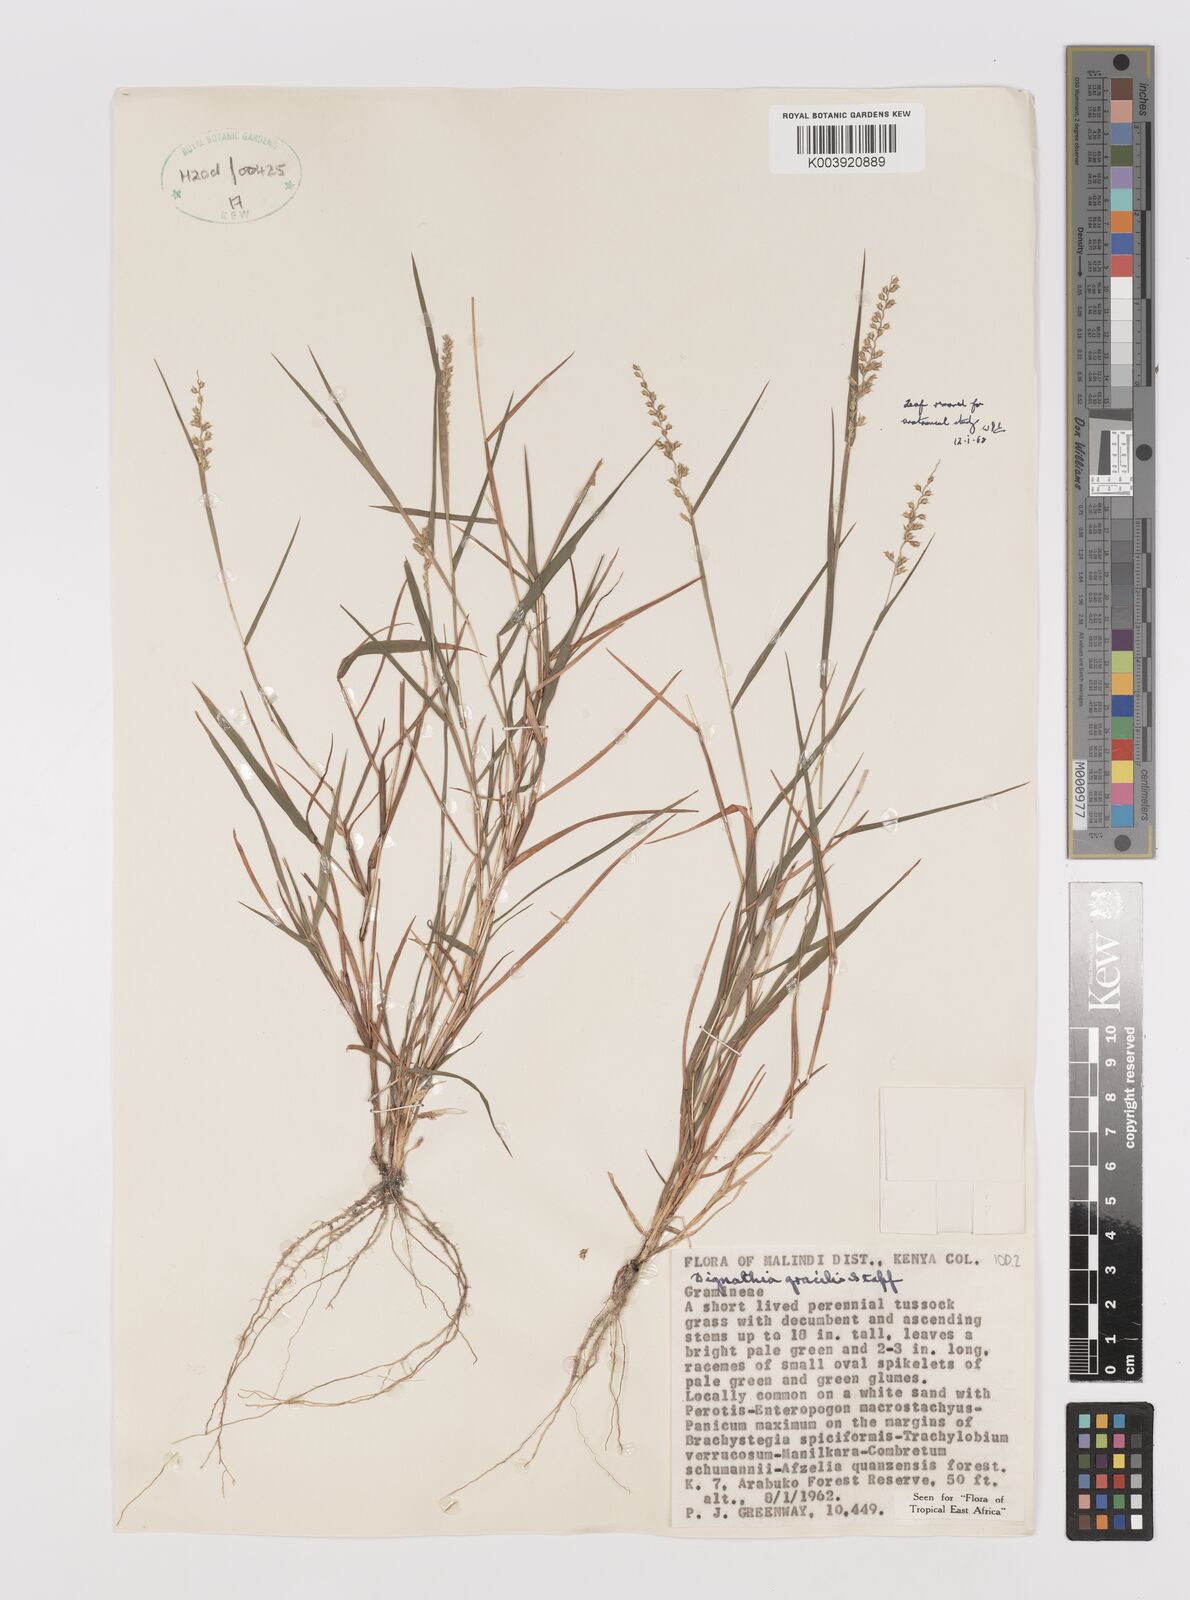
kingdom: Plantae
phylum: Tracheophyta
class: Liliopsida
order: Poales
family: Poaceae
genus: Dignathia
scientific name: Dignathia gracilis
